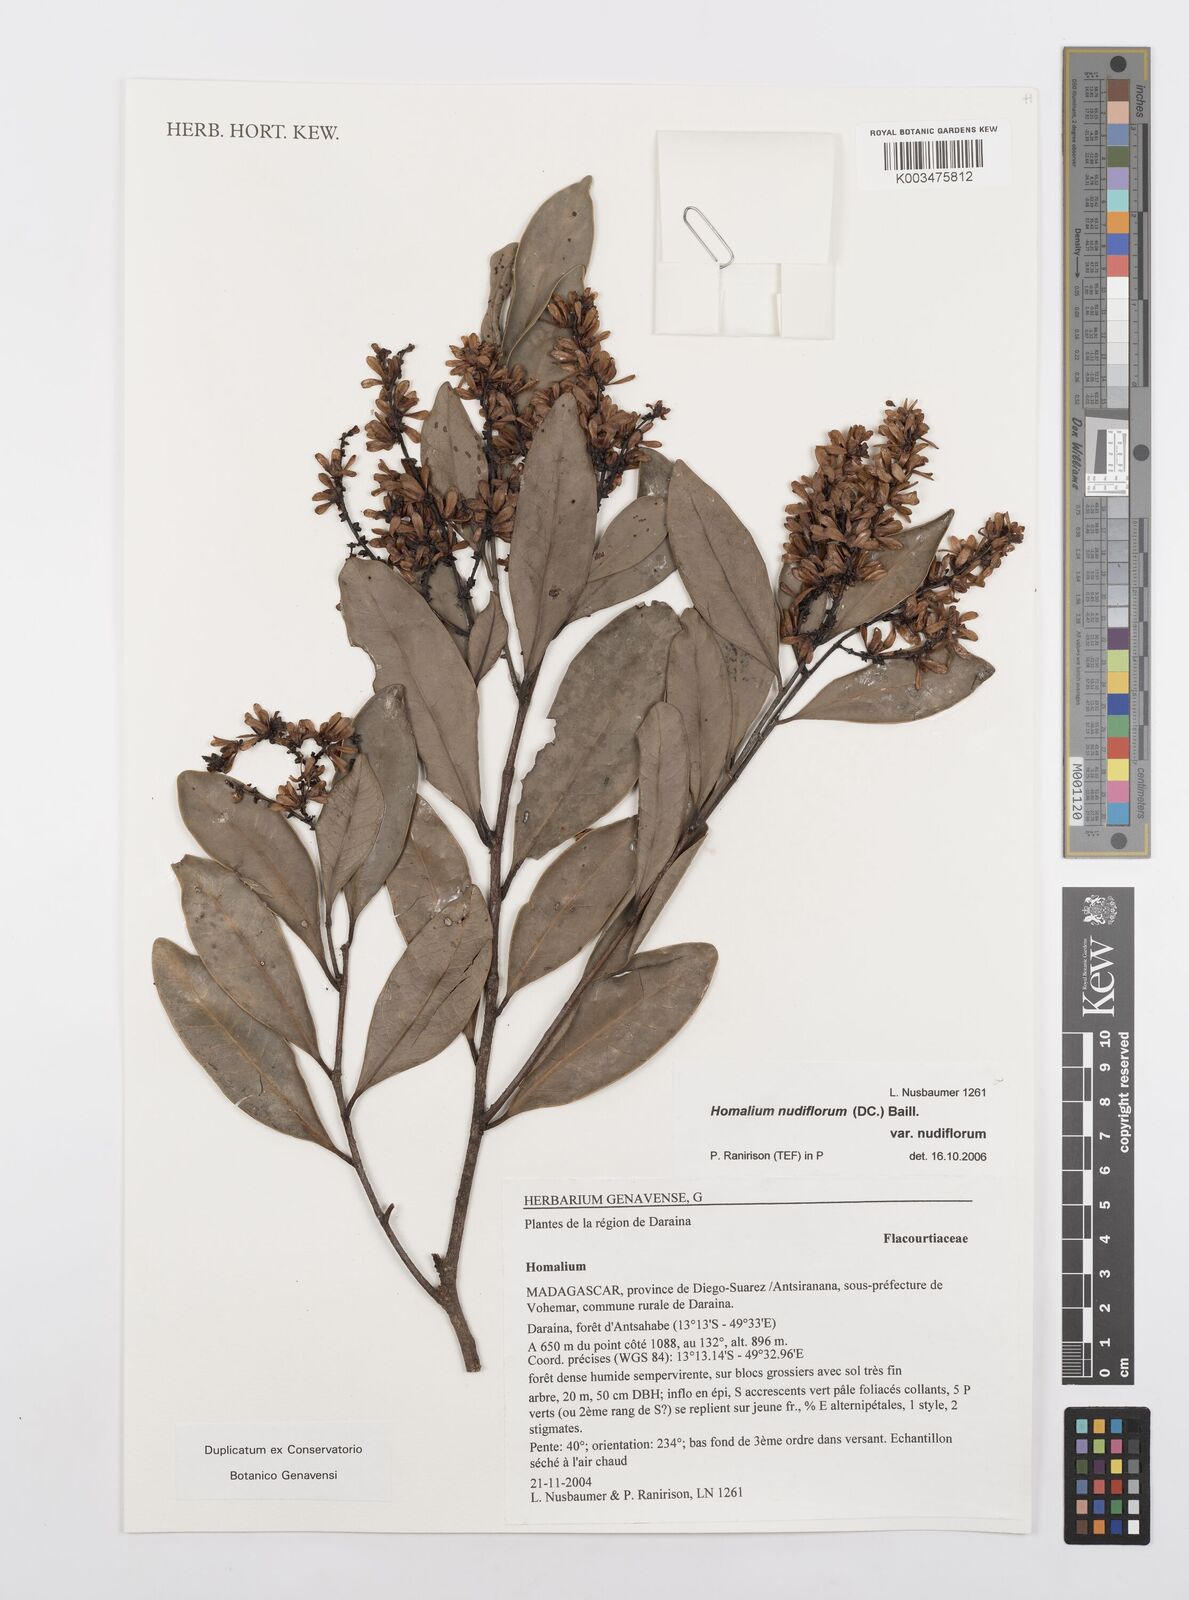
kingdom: Plantae
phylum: Tracheophyta
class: Magnoliopsida
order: Malpighiales
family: Salicaceae
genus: Homalium
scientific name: Homalium nudiflorum
